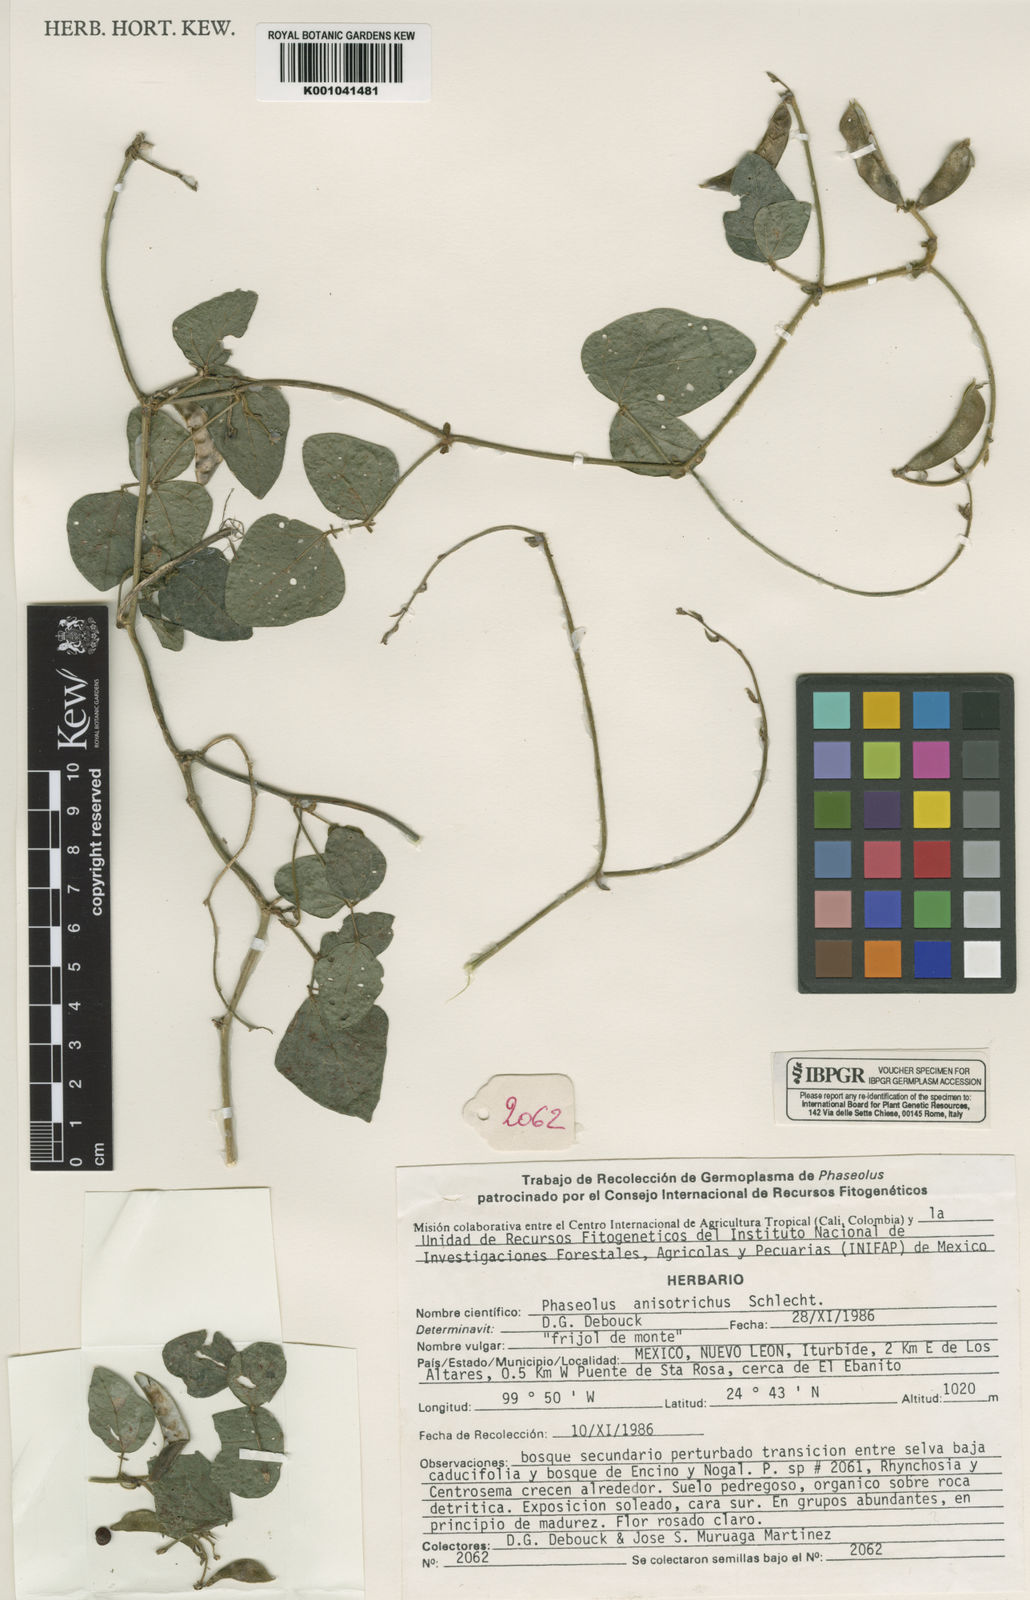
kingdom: Plantae
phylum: Tracheophyta
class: Magnoliopsida
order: Fabales
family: Fabaceae
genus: Phaseolus
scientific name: Phaseolus
